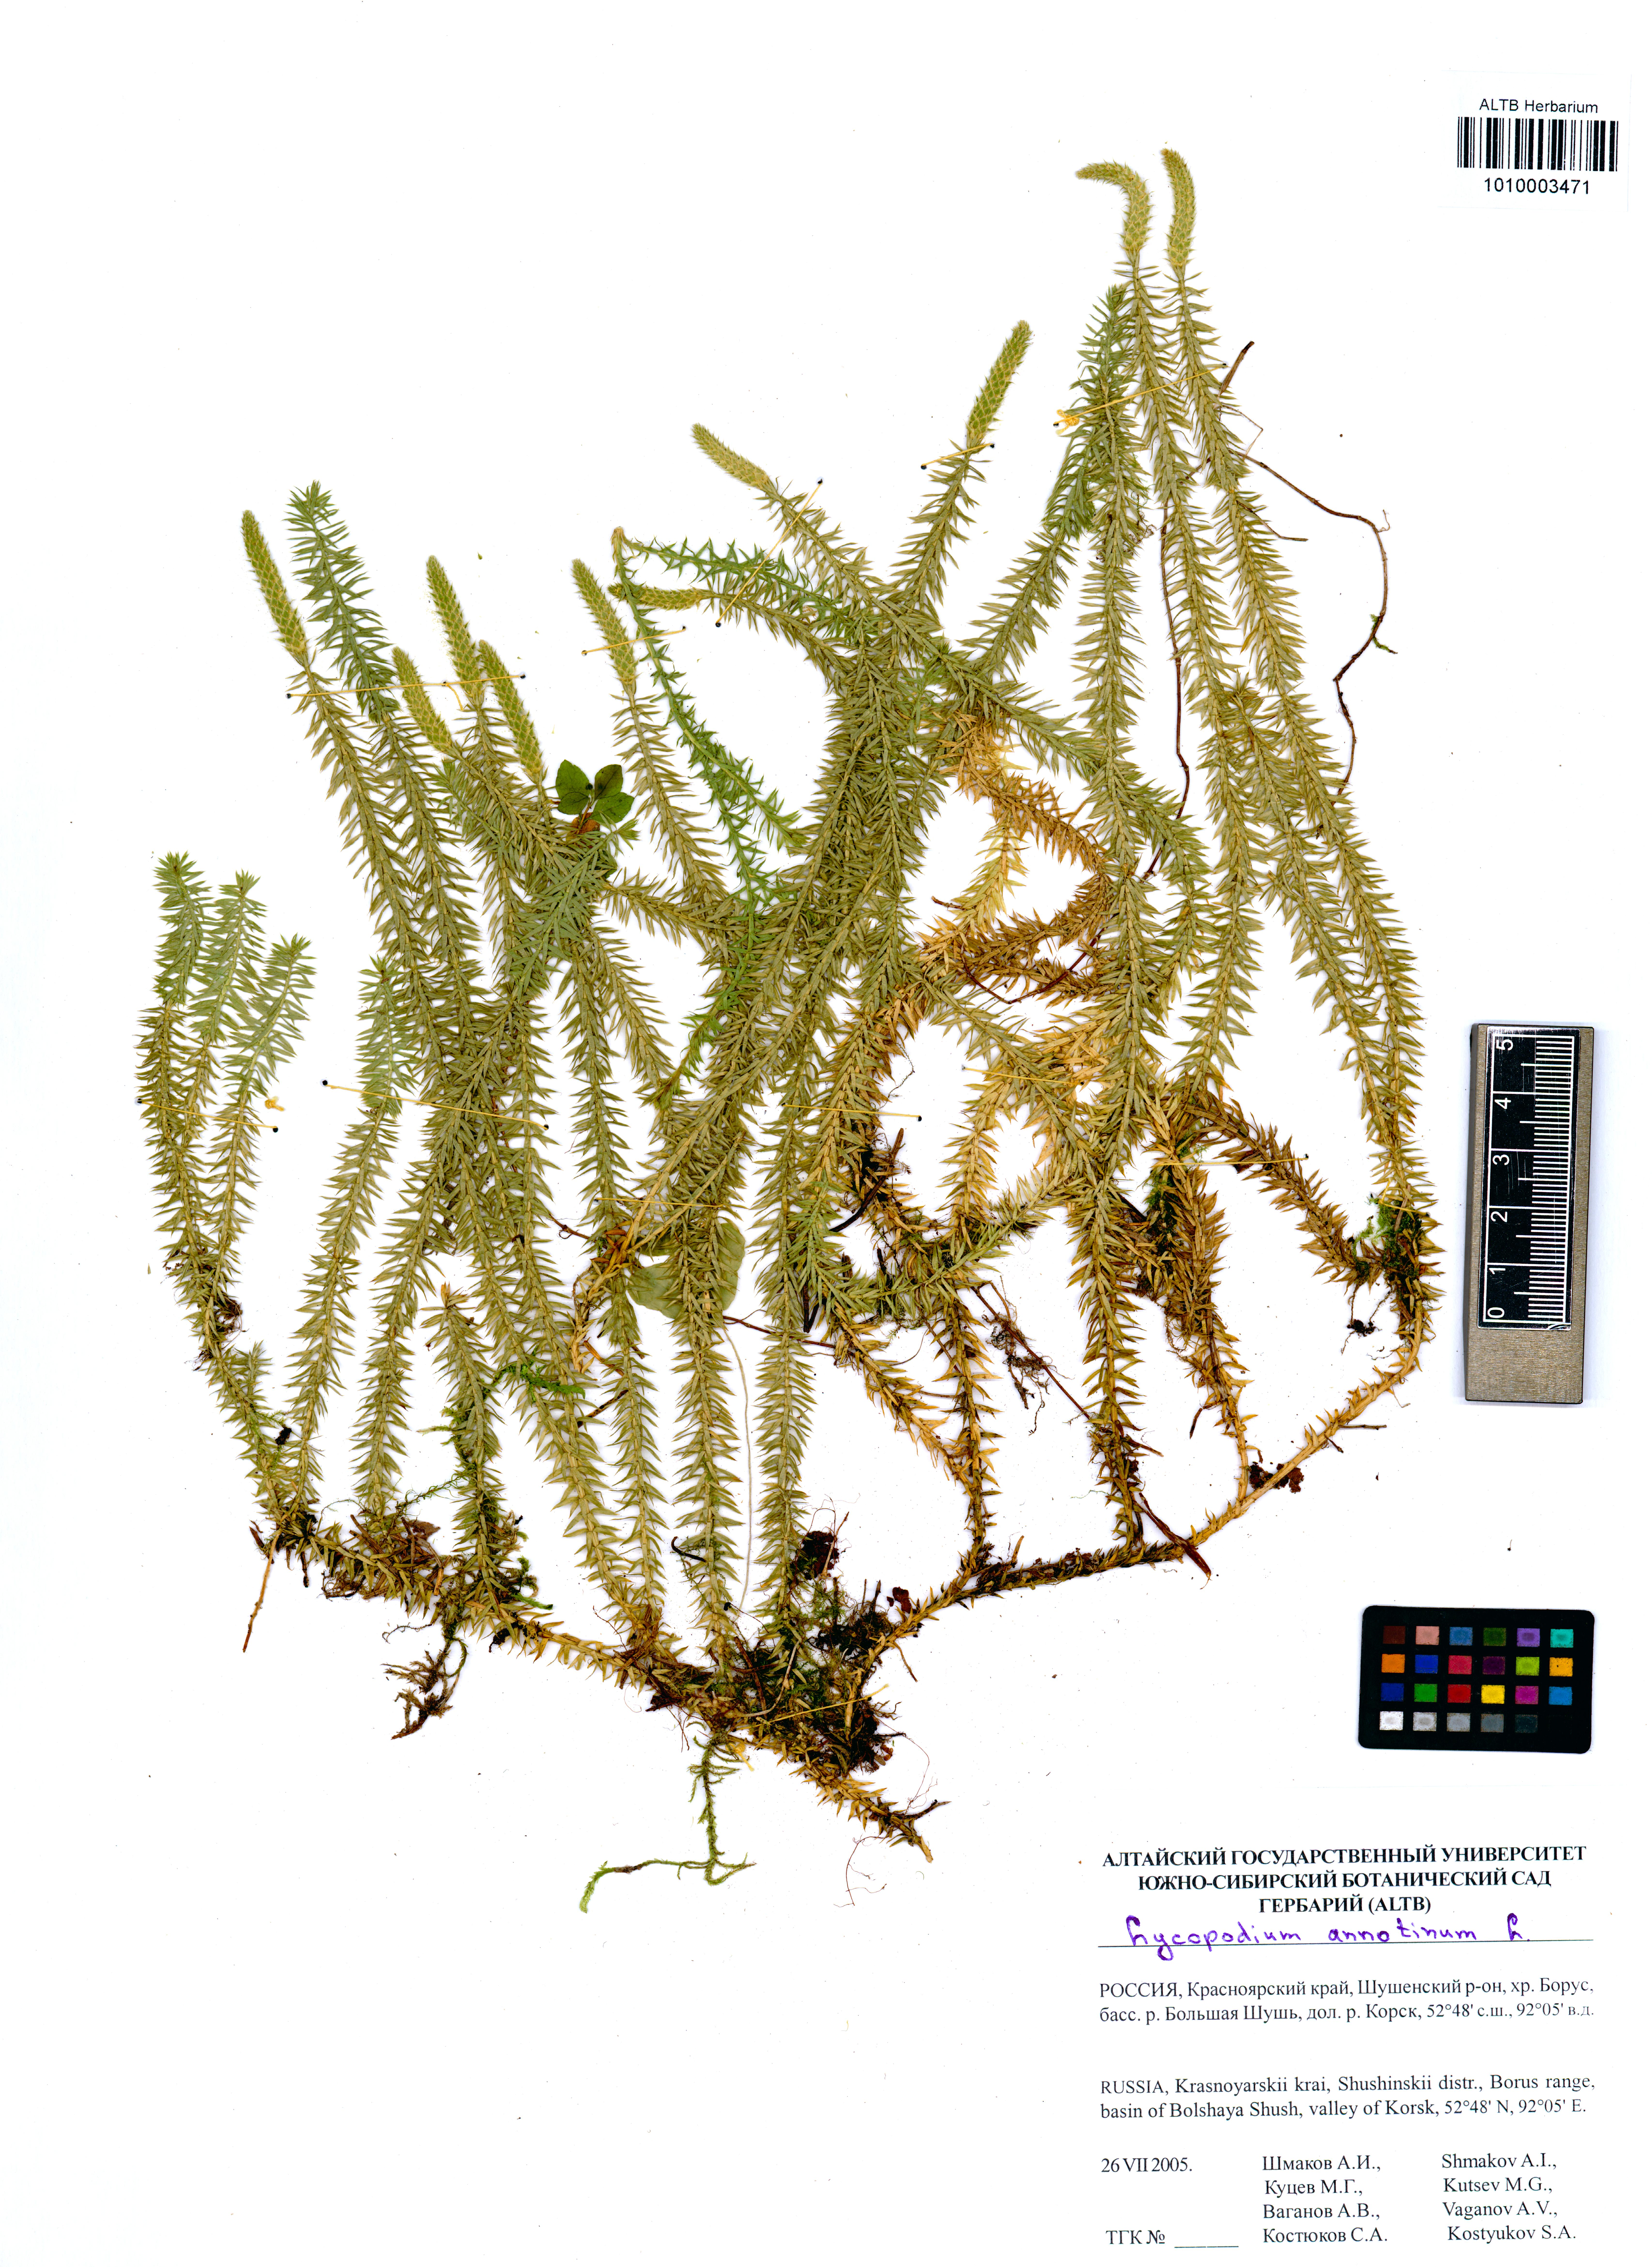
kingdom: Plantae
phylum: Tracheophyta
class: Lycopodiopsida
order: Lycopodiales
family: Lycopodiaceae
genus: Spinulum
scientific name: Spinulum annotinum
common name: Interrupted club-moss
